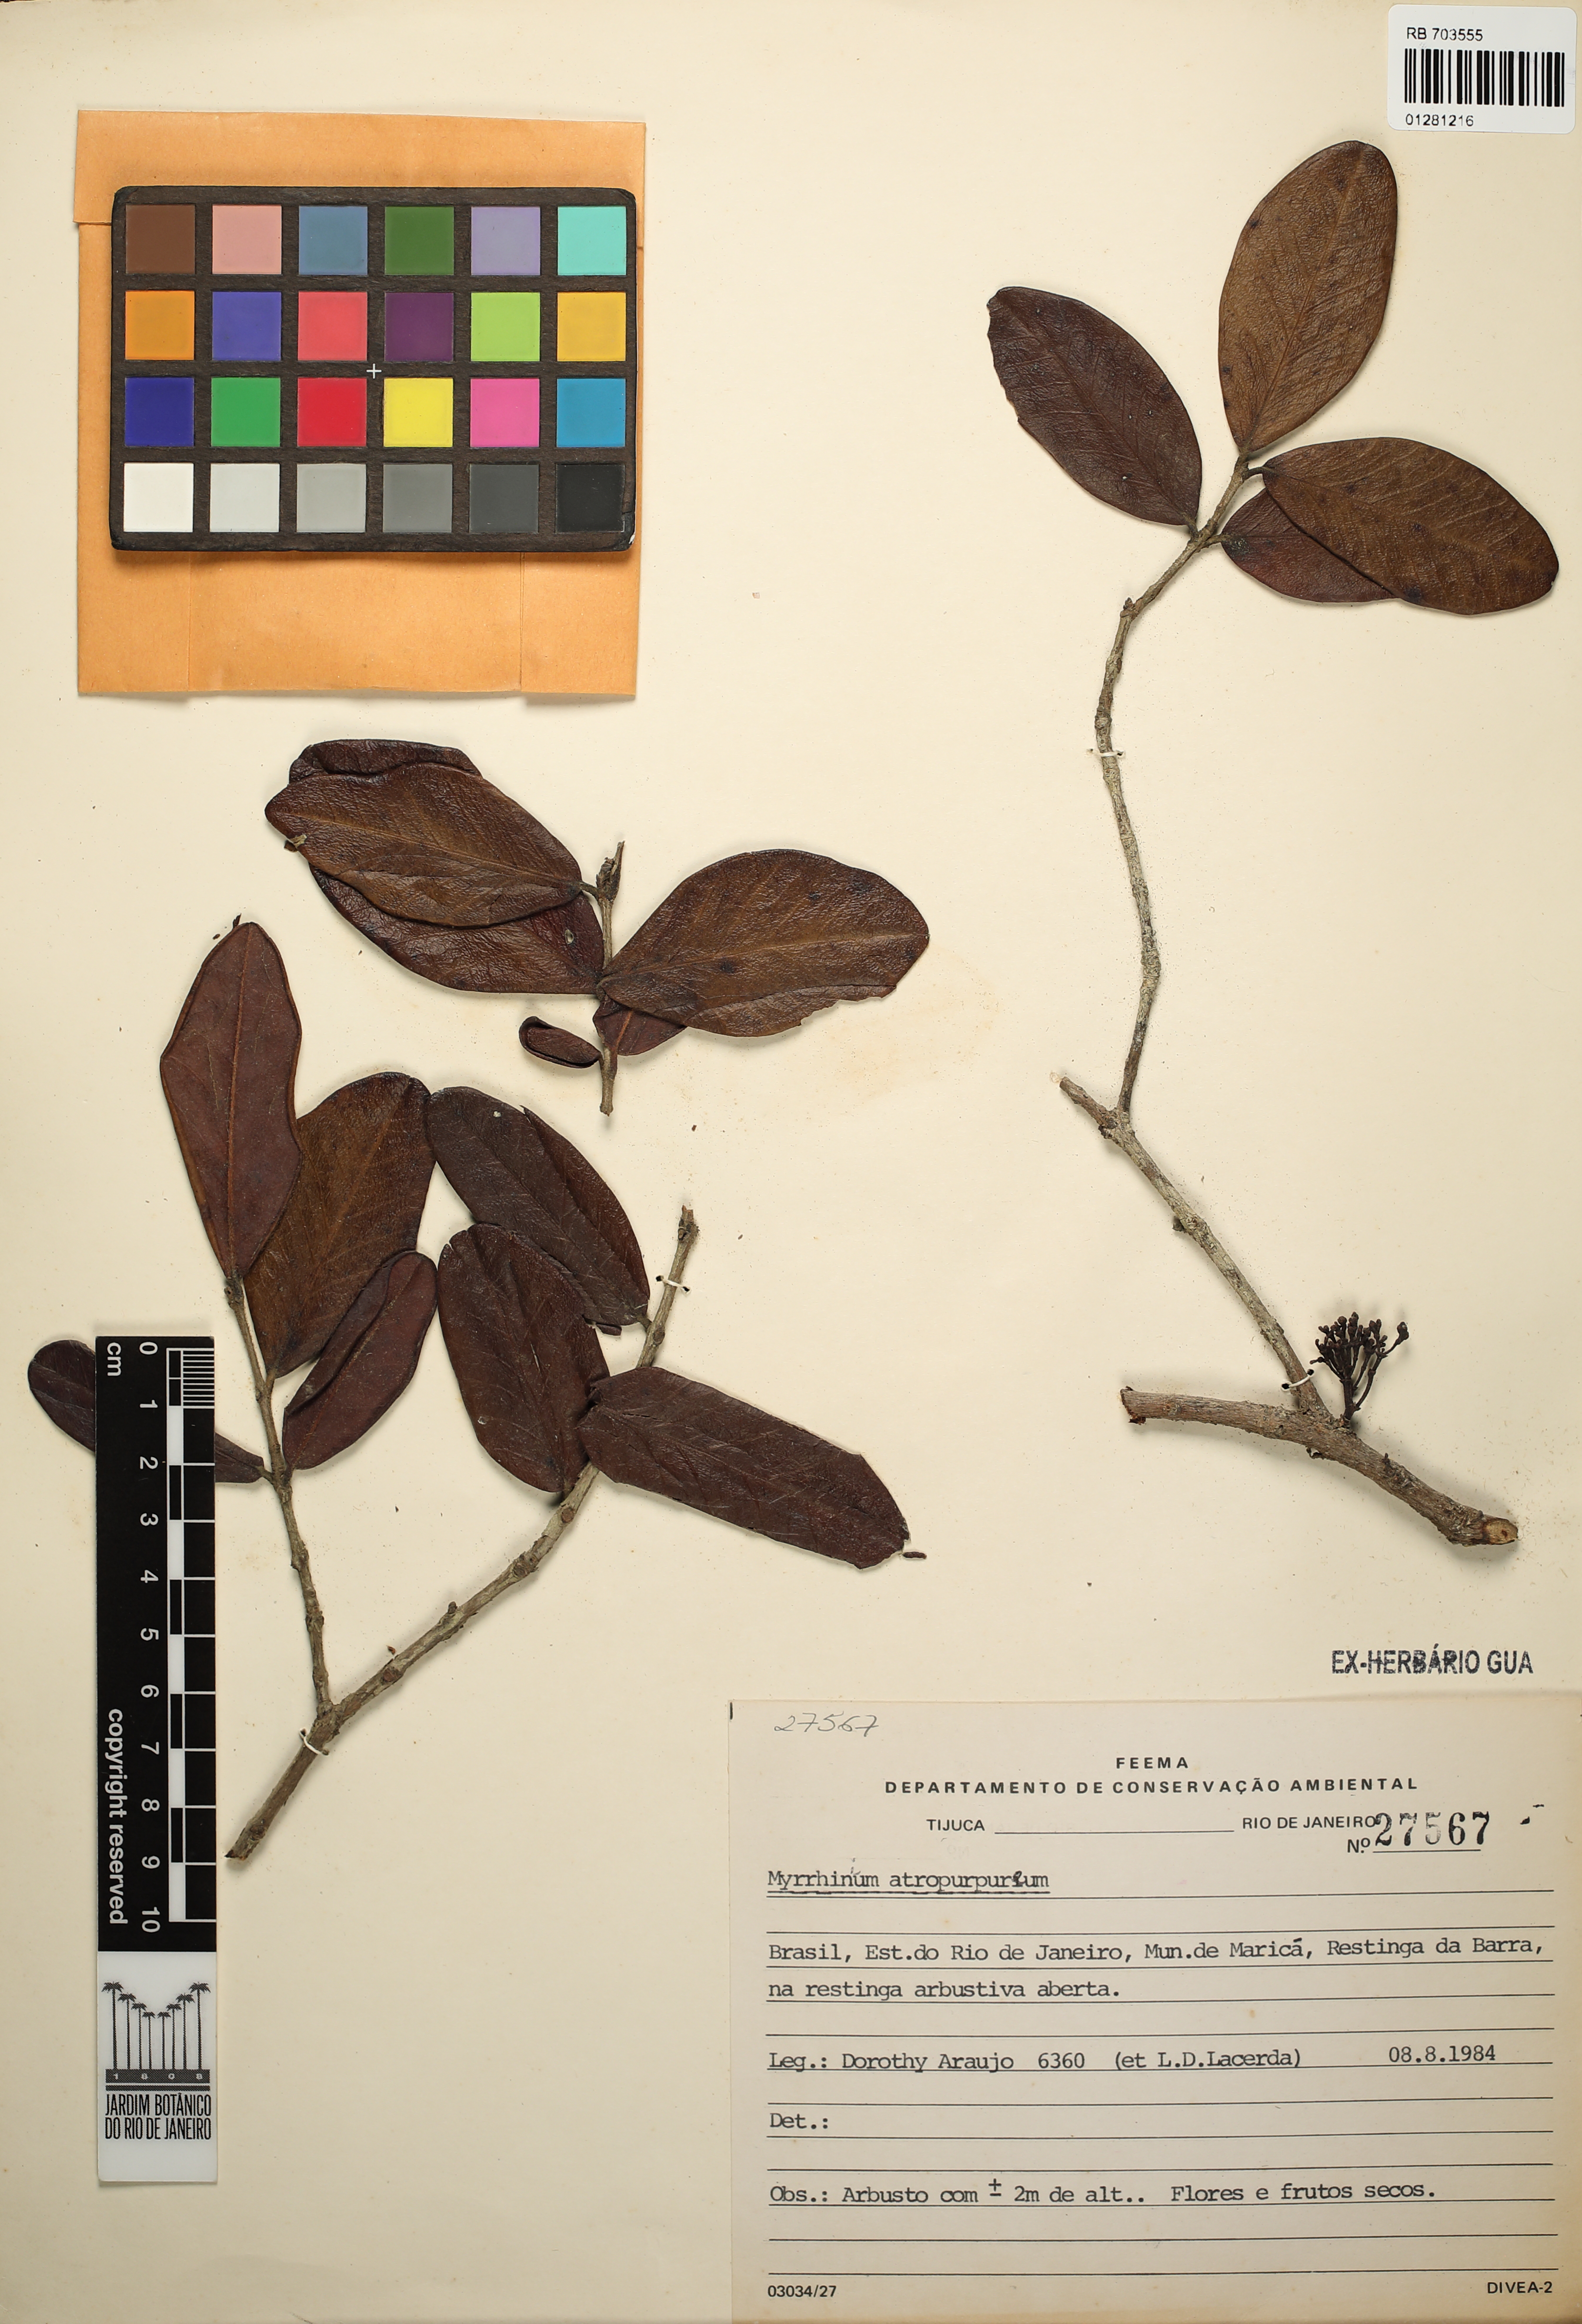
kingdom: Plantae
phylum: Tracheophyta
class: Magnoliopsida
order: Myrtales
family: Myrtaceae
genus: Myrrhinium
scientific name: Myrrhinium atropurpureum
